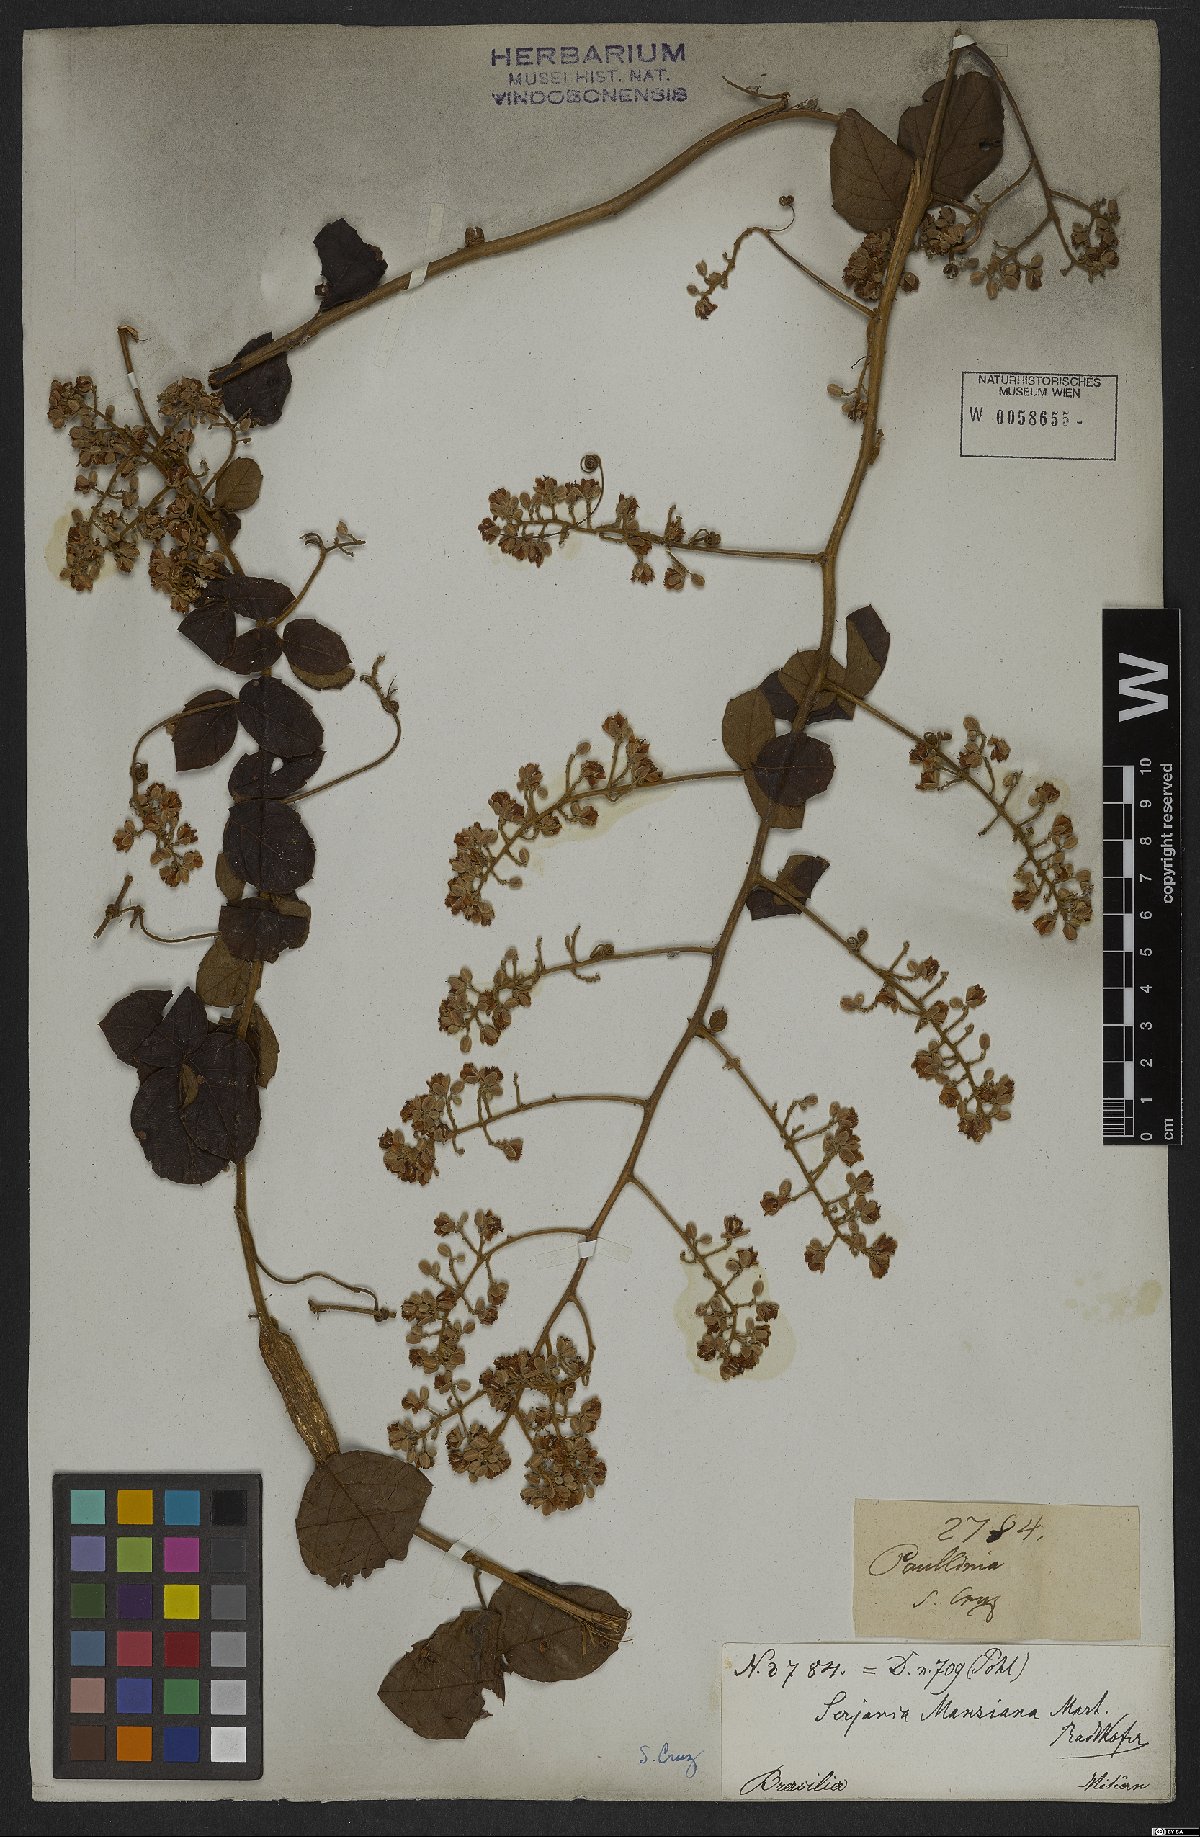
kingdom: Plantae
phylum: Tracheophyta
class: Magnoliopsida
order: Sapindales
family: Sapindaceae
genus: Serjania
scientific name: Serjania mansiana
